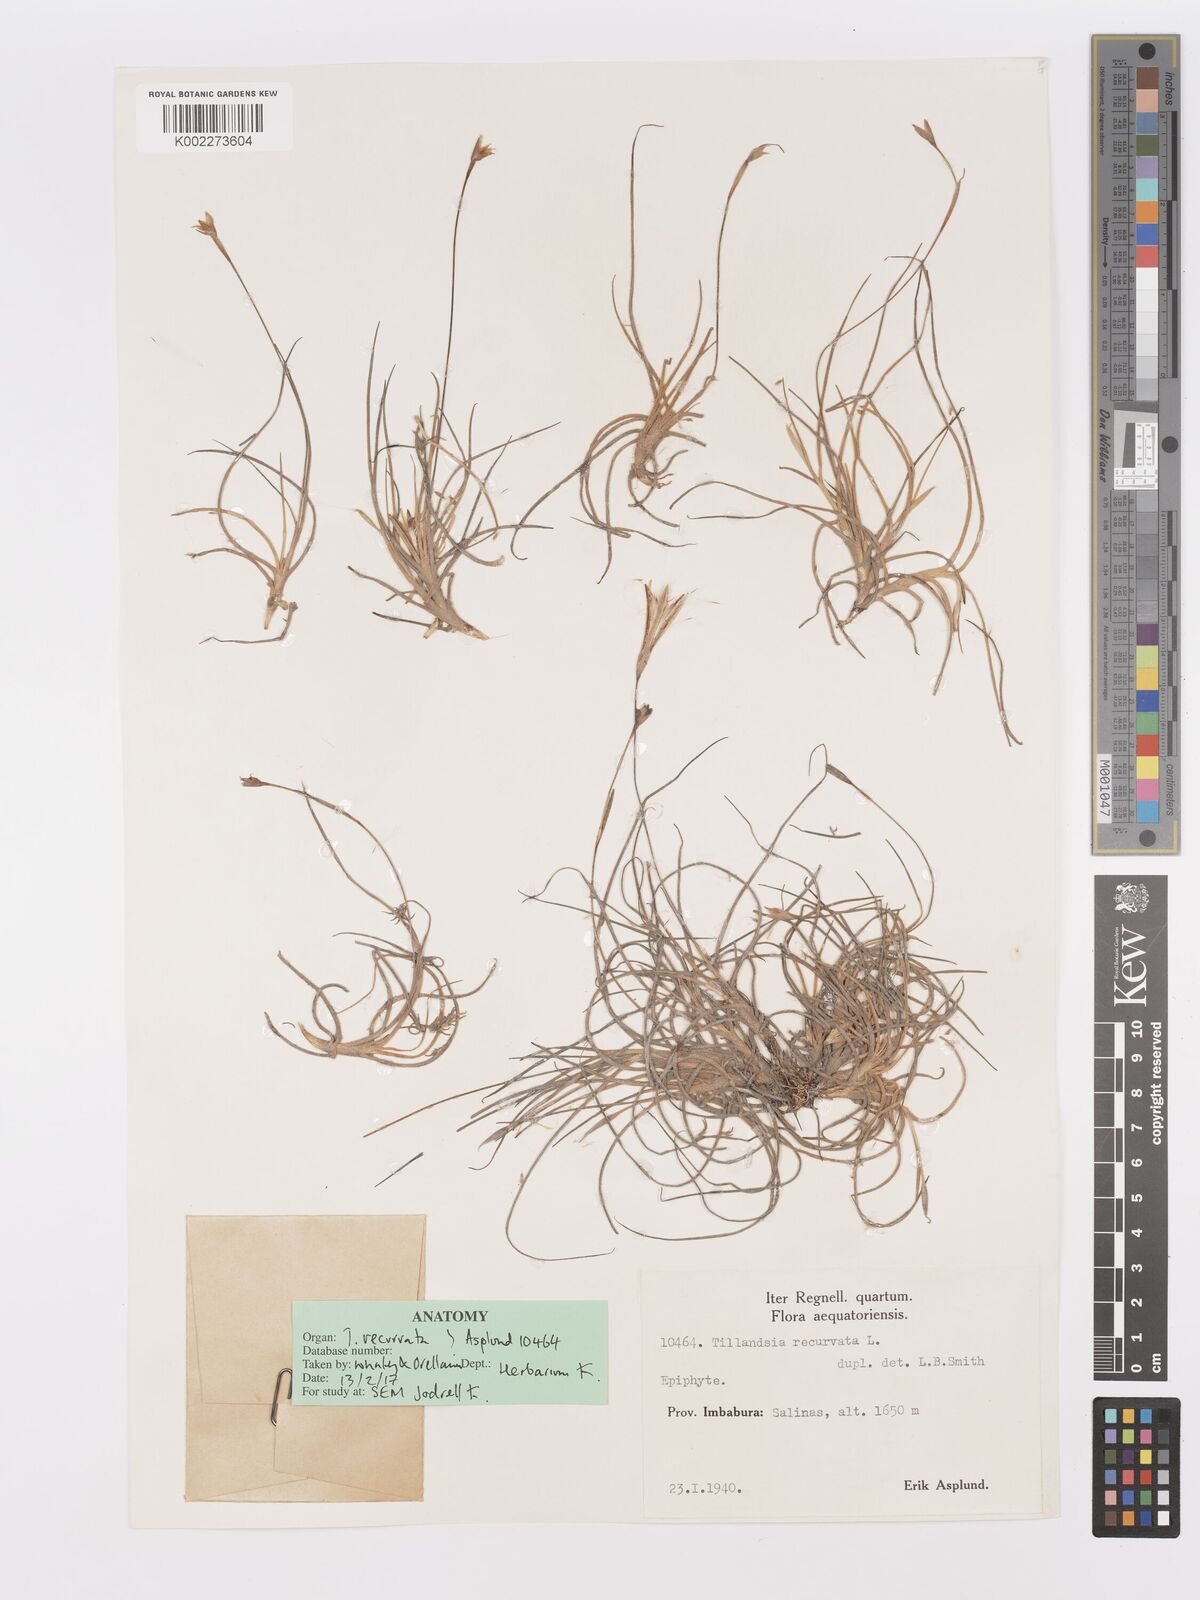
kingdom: Plantae
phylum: Tracheophyta
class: Liliopsida
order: Poales
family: Bromeliaceae
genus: Tillandsia
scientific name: Tillandsia recurvata
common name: Small ballmoss
